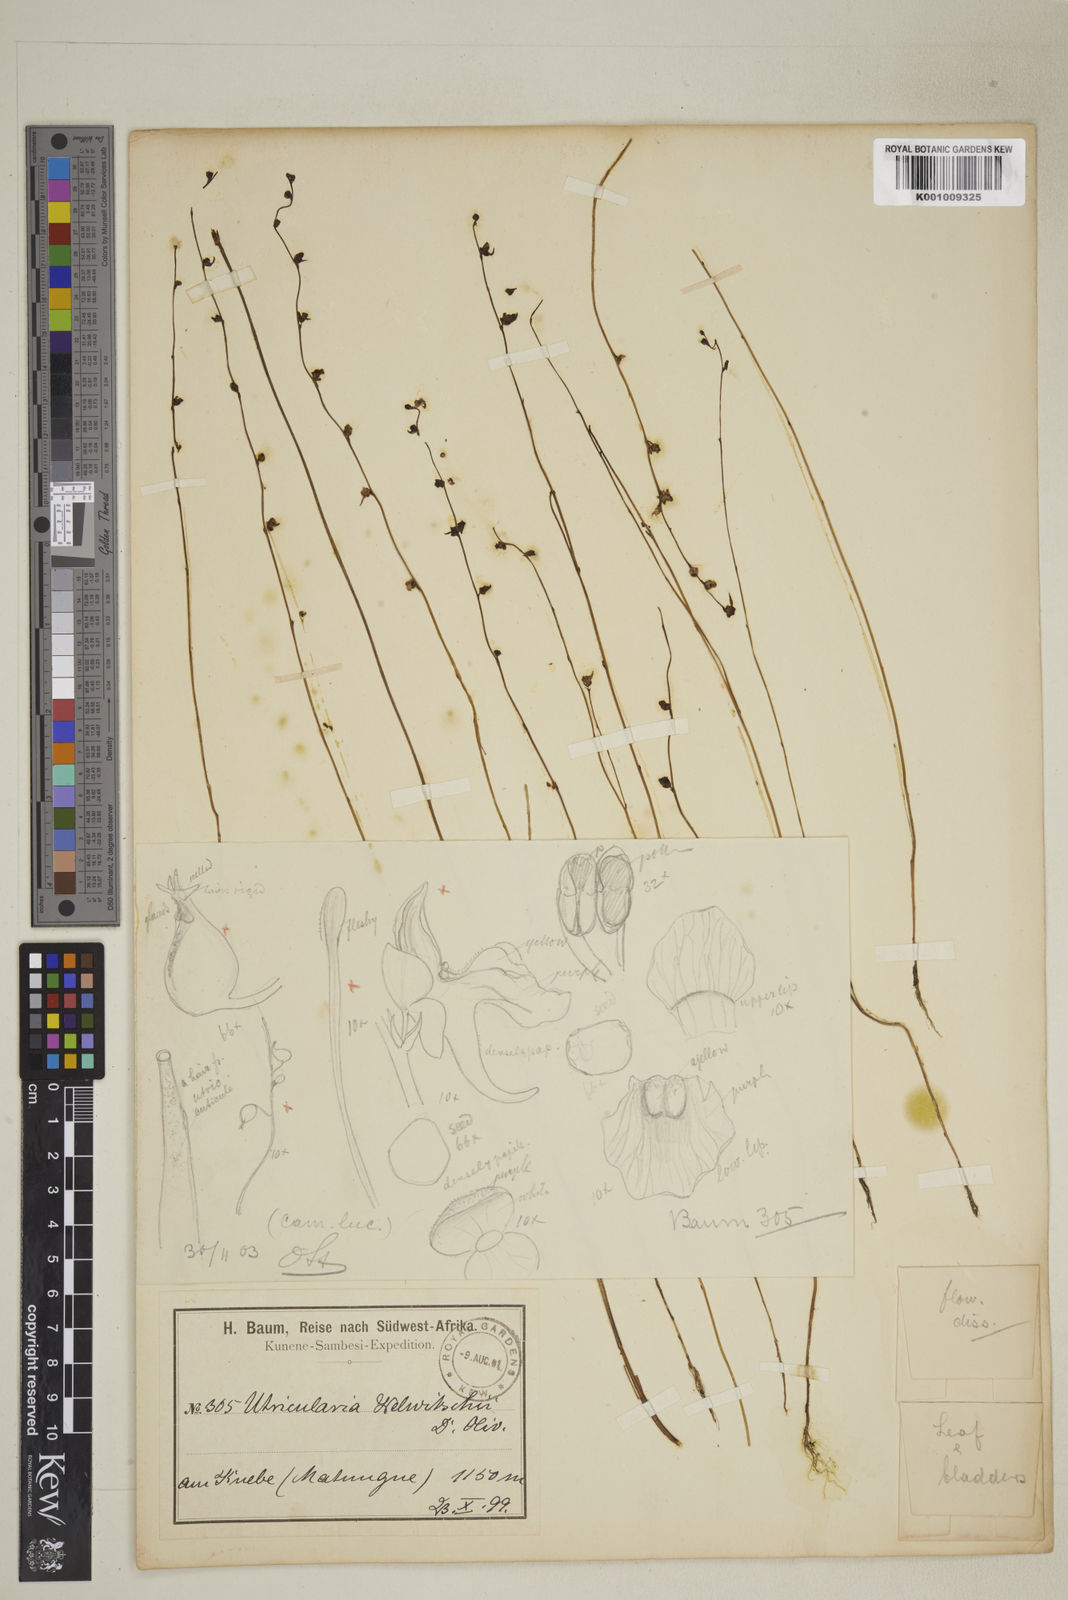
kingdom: Plantae
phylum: Tracheophyta
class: Magnoliopsida
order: Lamiales
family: Lentibulariaceae
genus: Utricularia
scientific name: Utricularia welwitschii
